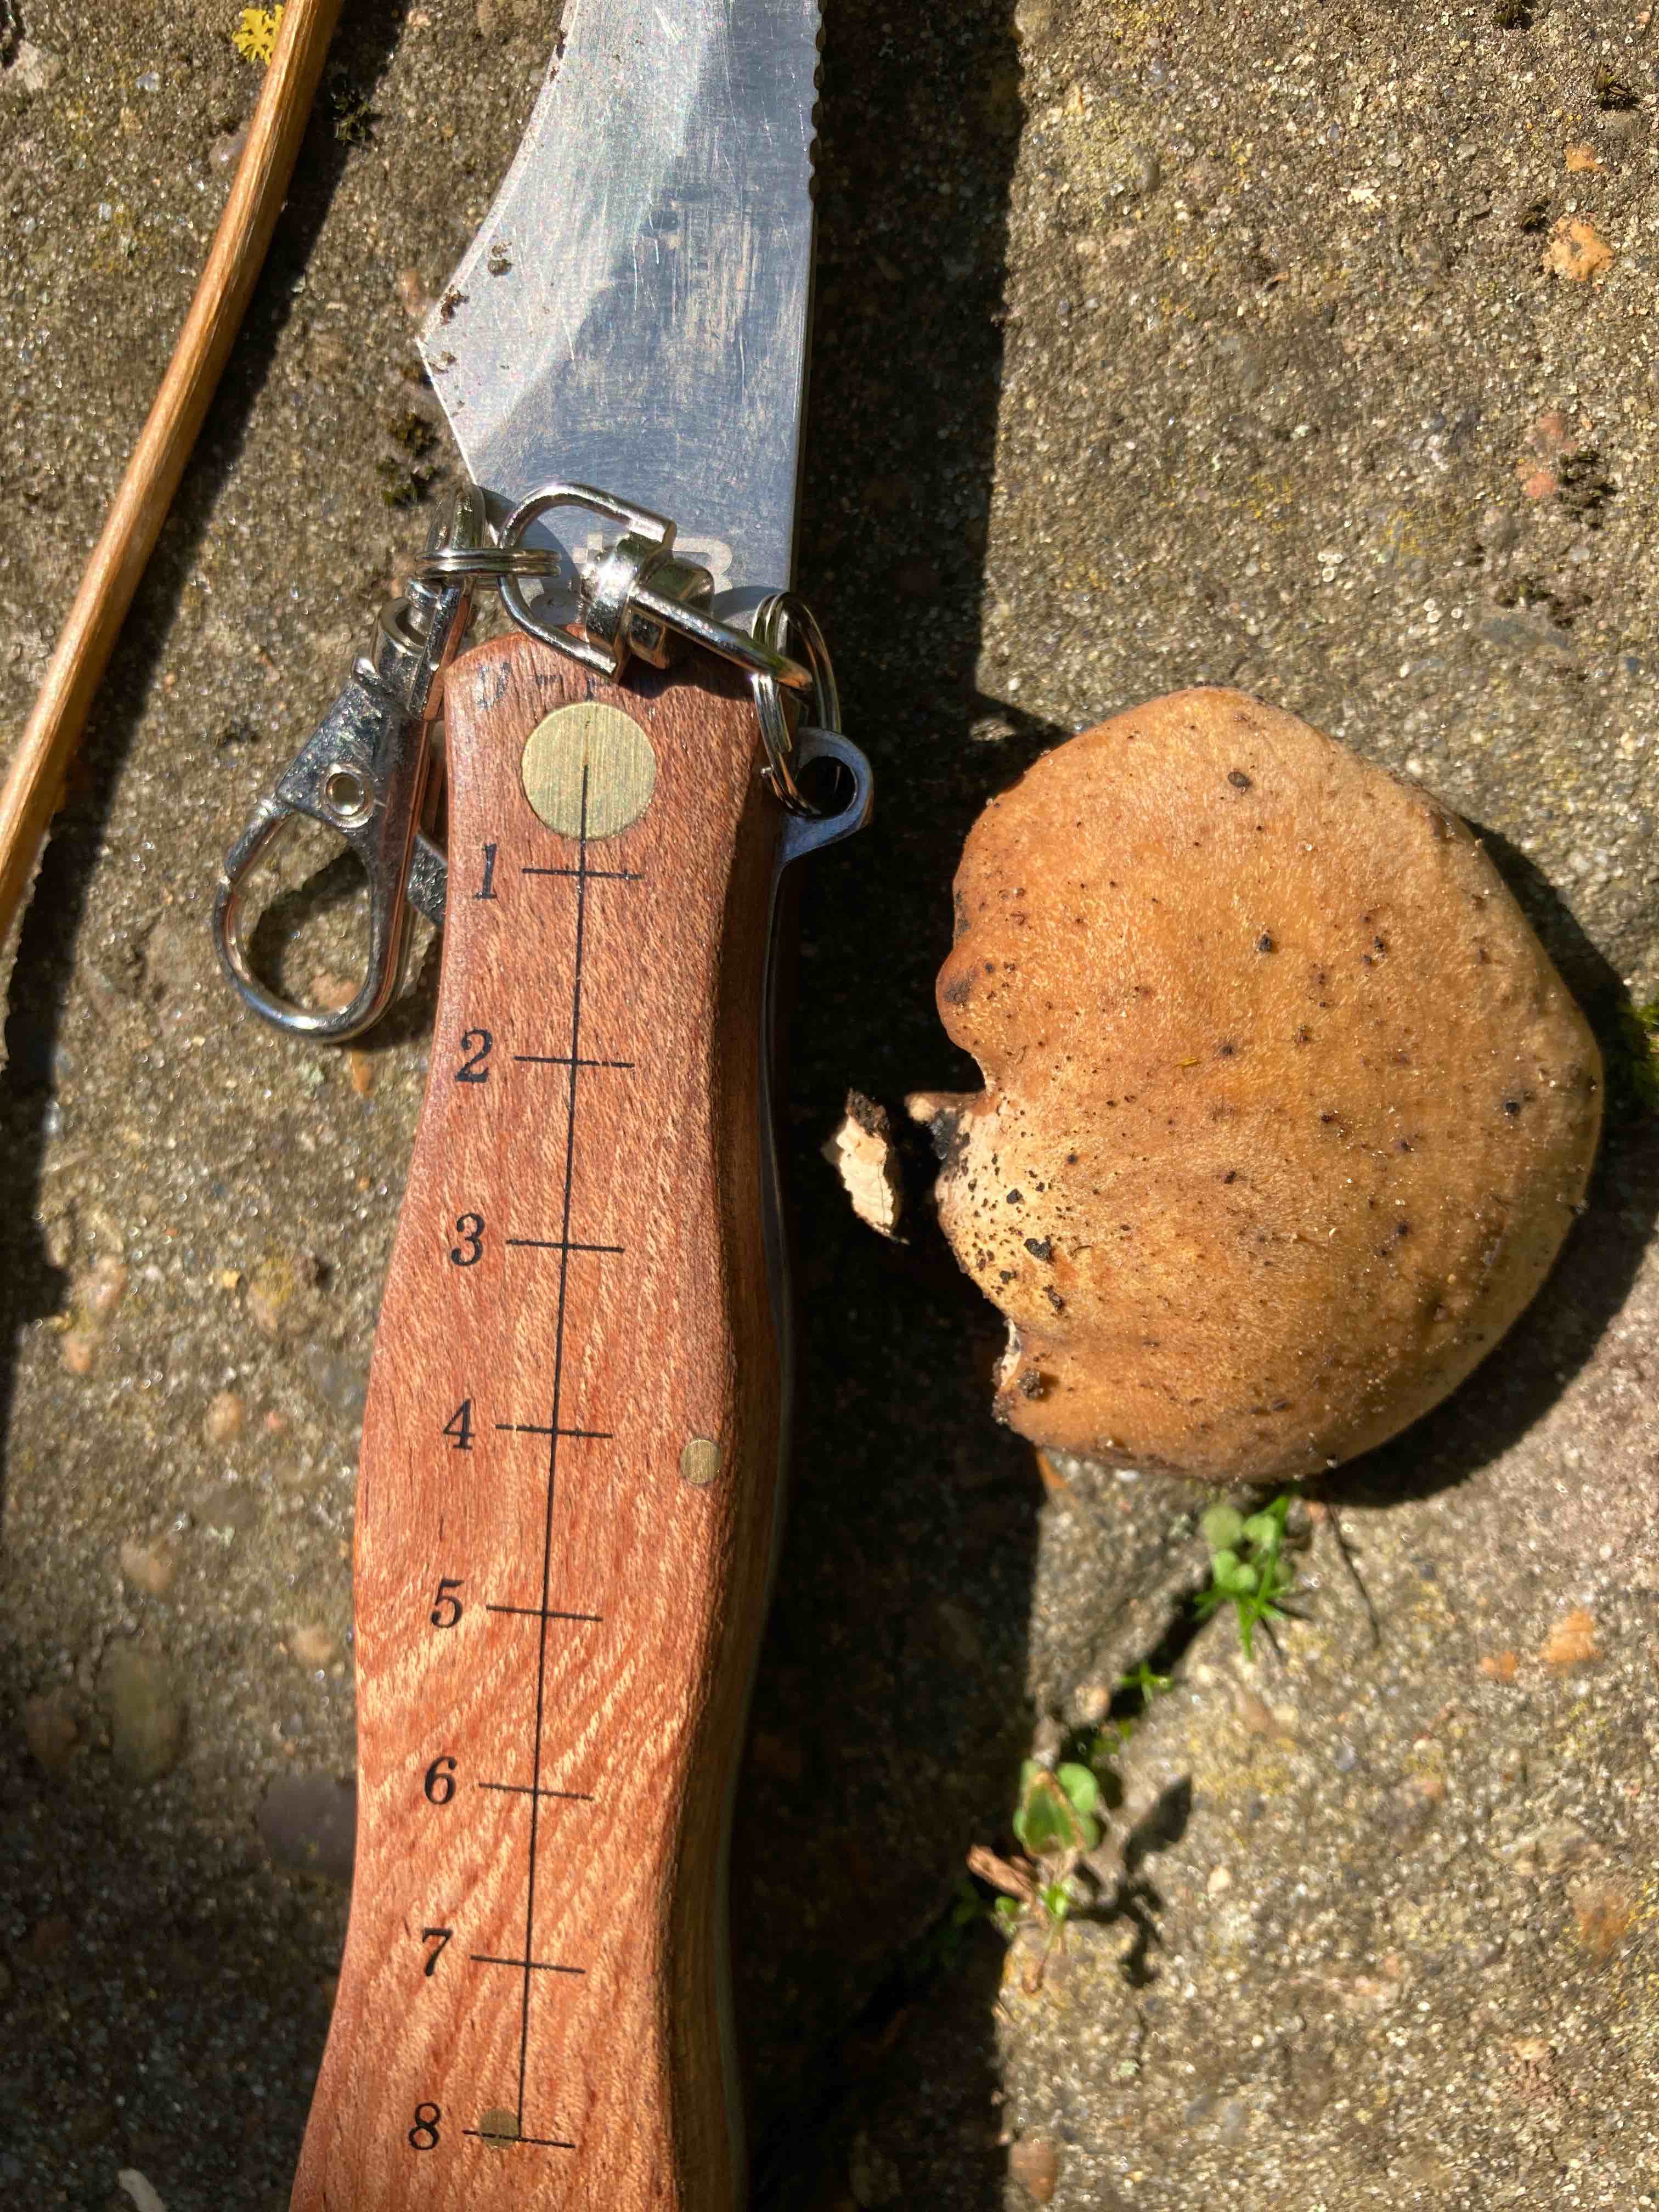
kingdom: Fungi
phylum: Basidiomycota
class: Agaricomycetes
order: Polyporales
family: Polyporaceae
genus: Cerioporus
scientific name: Cerioporus varius
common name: foranderlig stilkporesvamp
